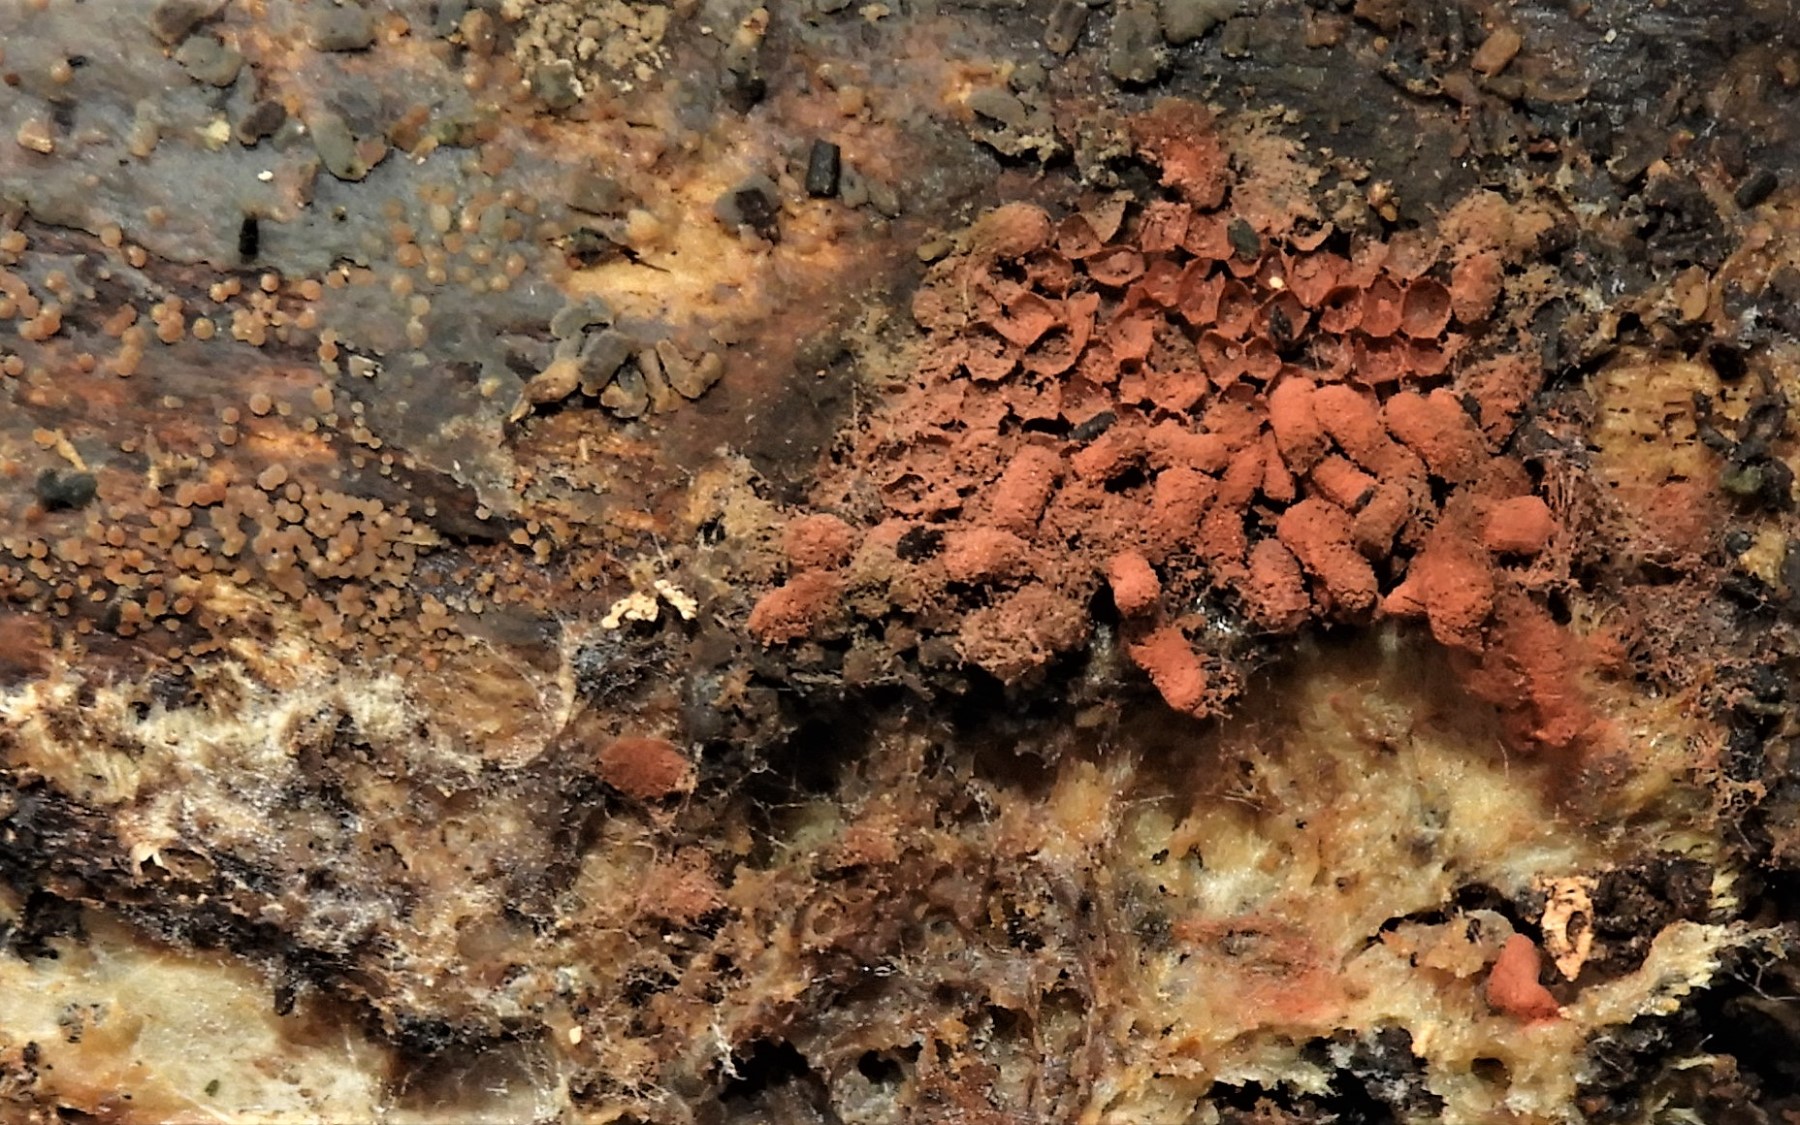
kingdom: Protozoa
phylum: Amoebozoa
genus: Arcyria
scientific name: Arcyria
